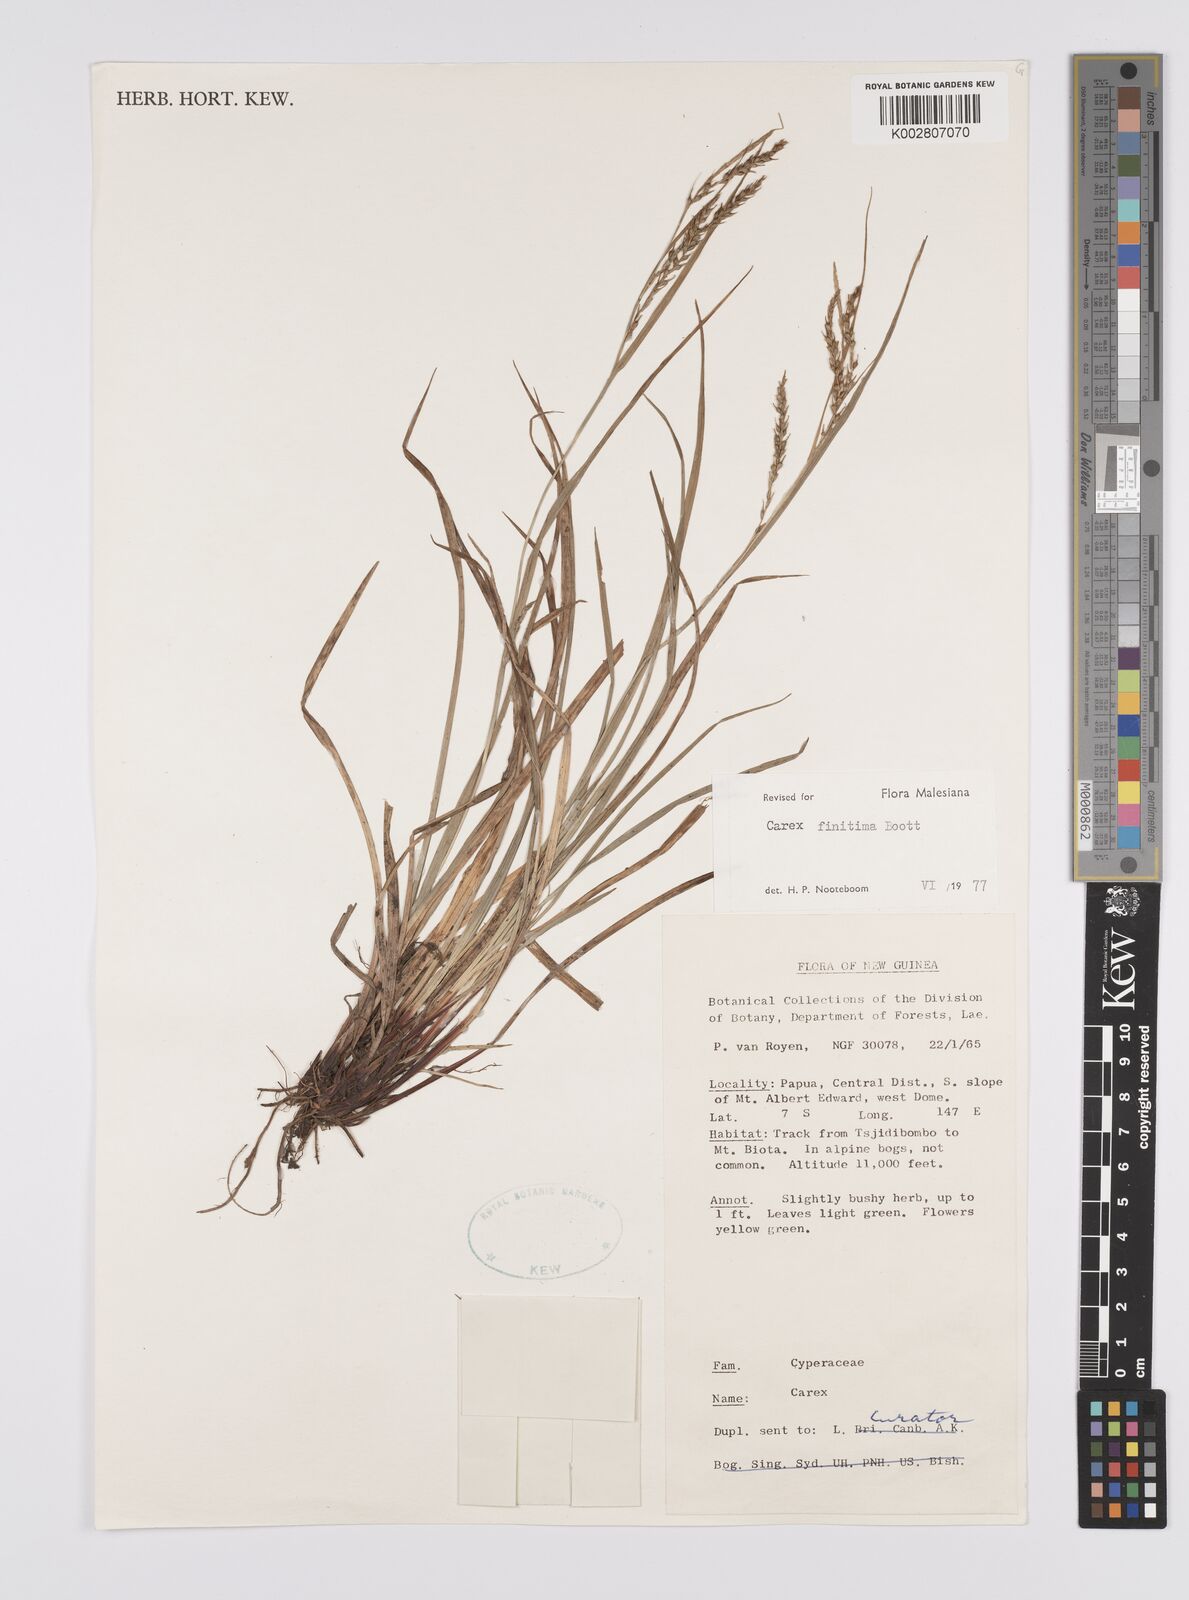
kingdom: Plantae
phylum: Tracheophyta
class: Liliopsida
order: Poales
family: Cyperaceae
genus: Carex
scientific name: Carex finitima
